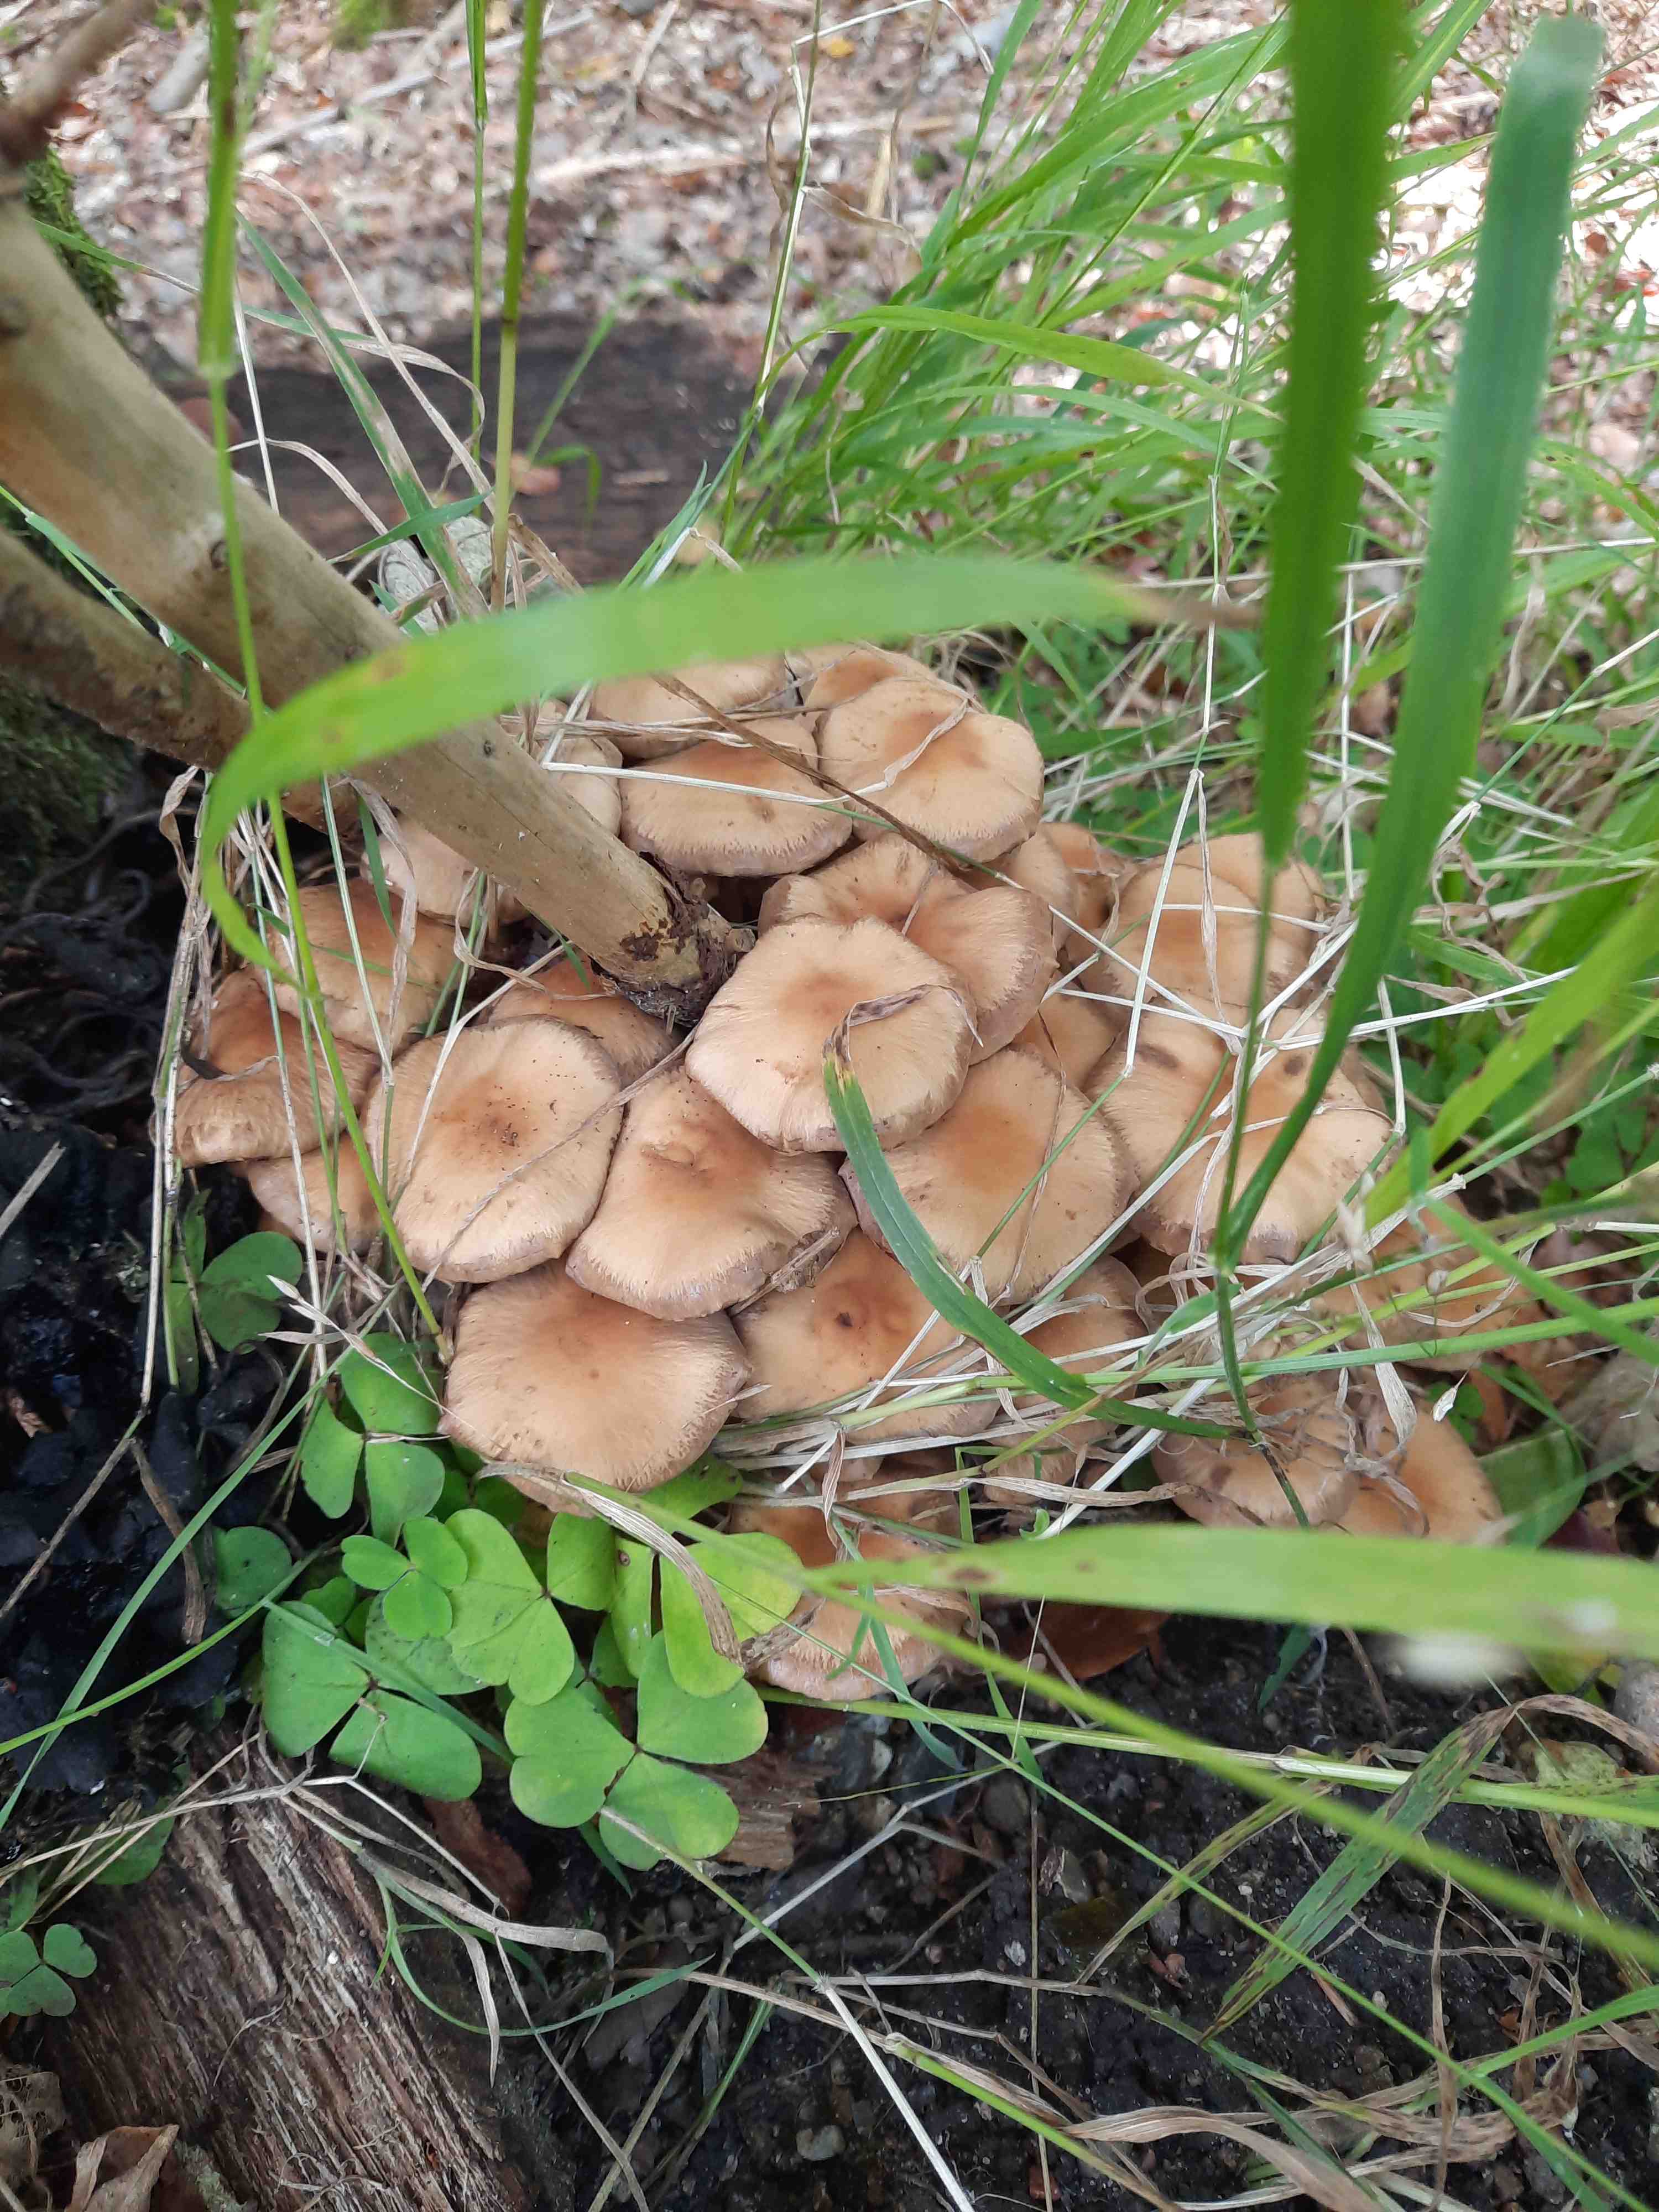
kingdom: Fungi
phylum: Basidiomycota
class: Agaricomycetes
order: Agaricales
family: Psathyrellaceae
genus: Psathyrella
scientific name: Psathyrella piluliformis
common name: lysstokket mørkhat
